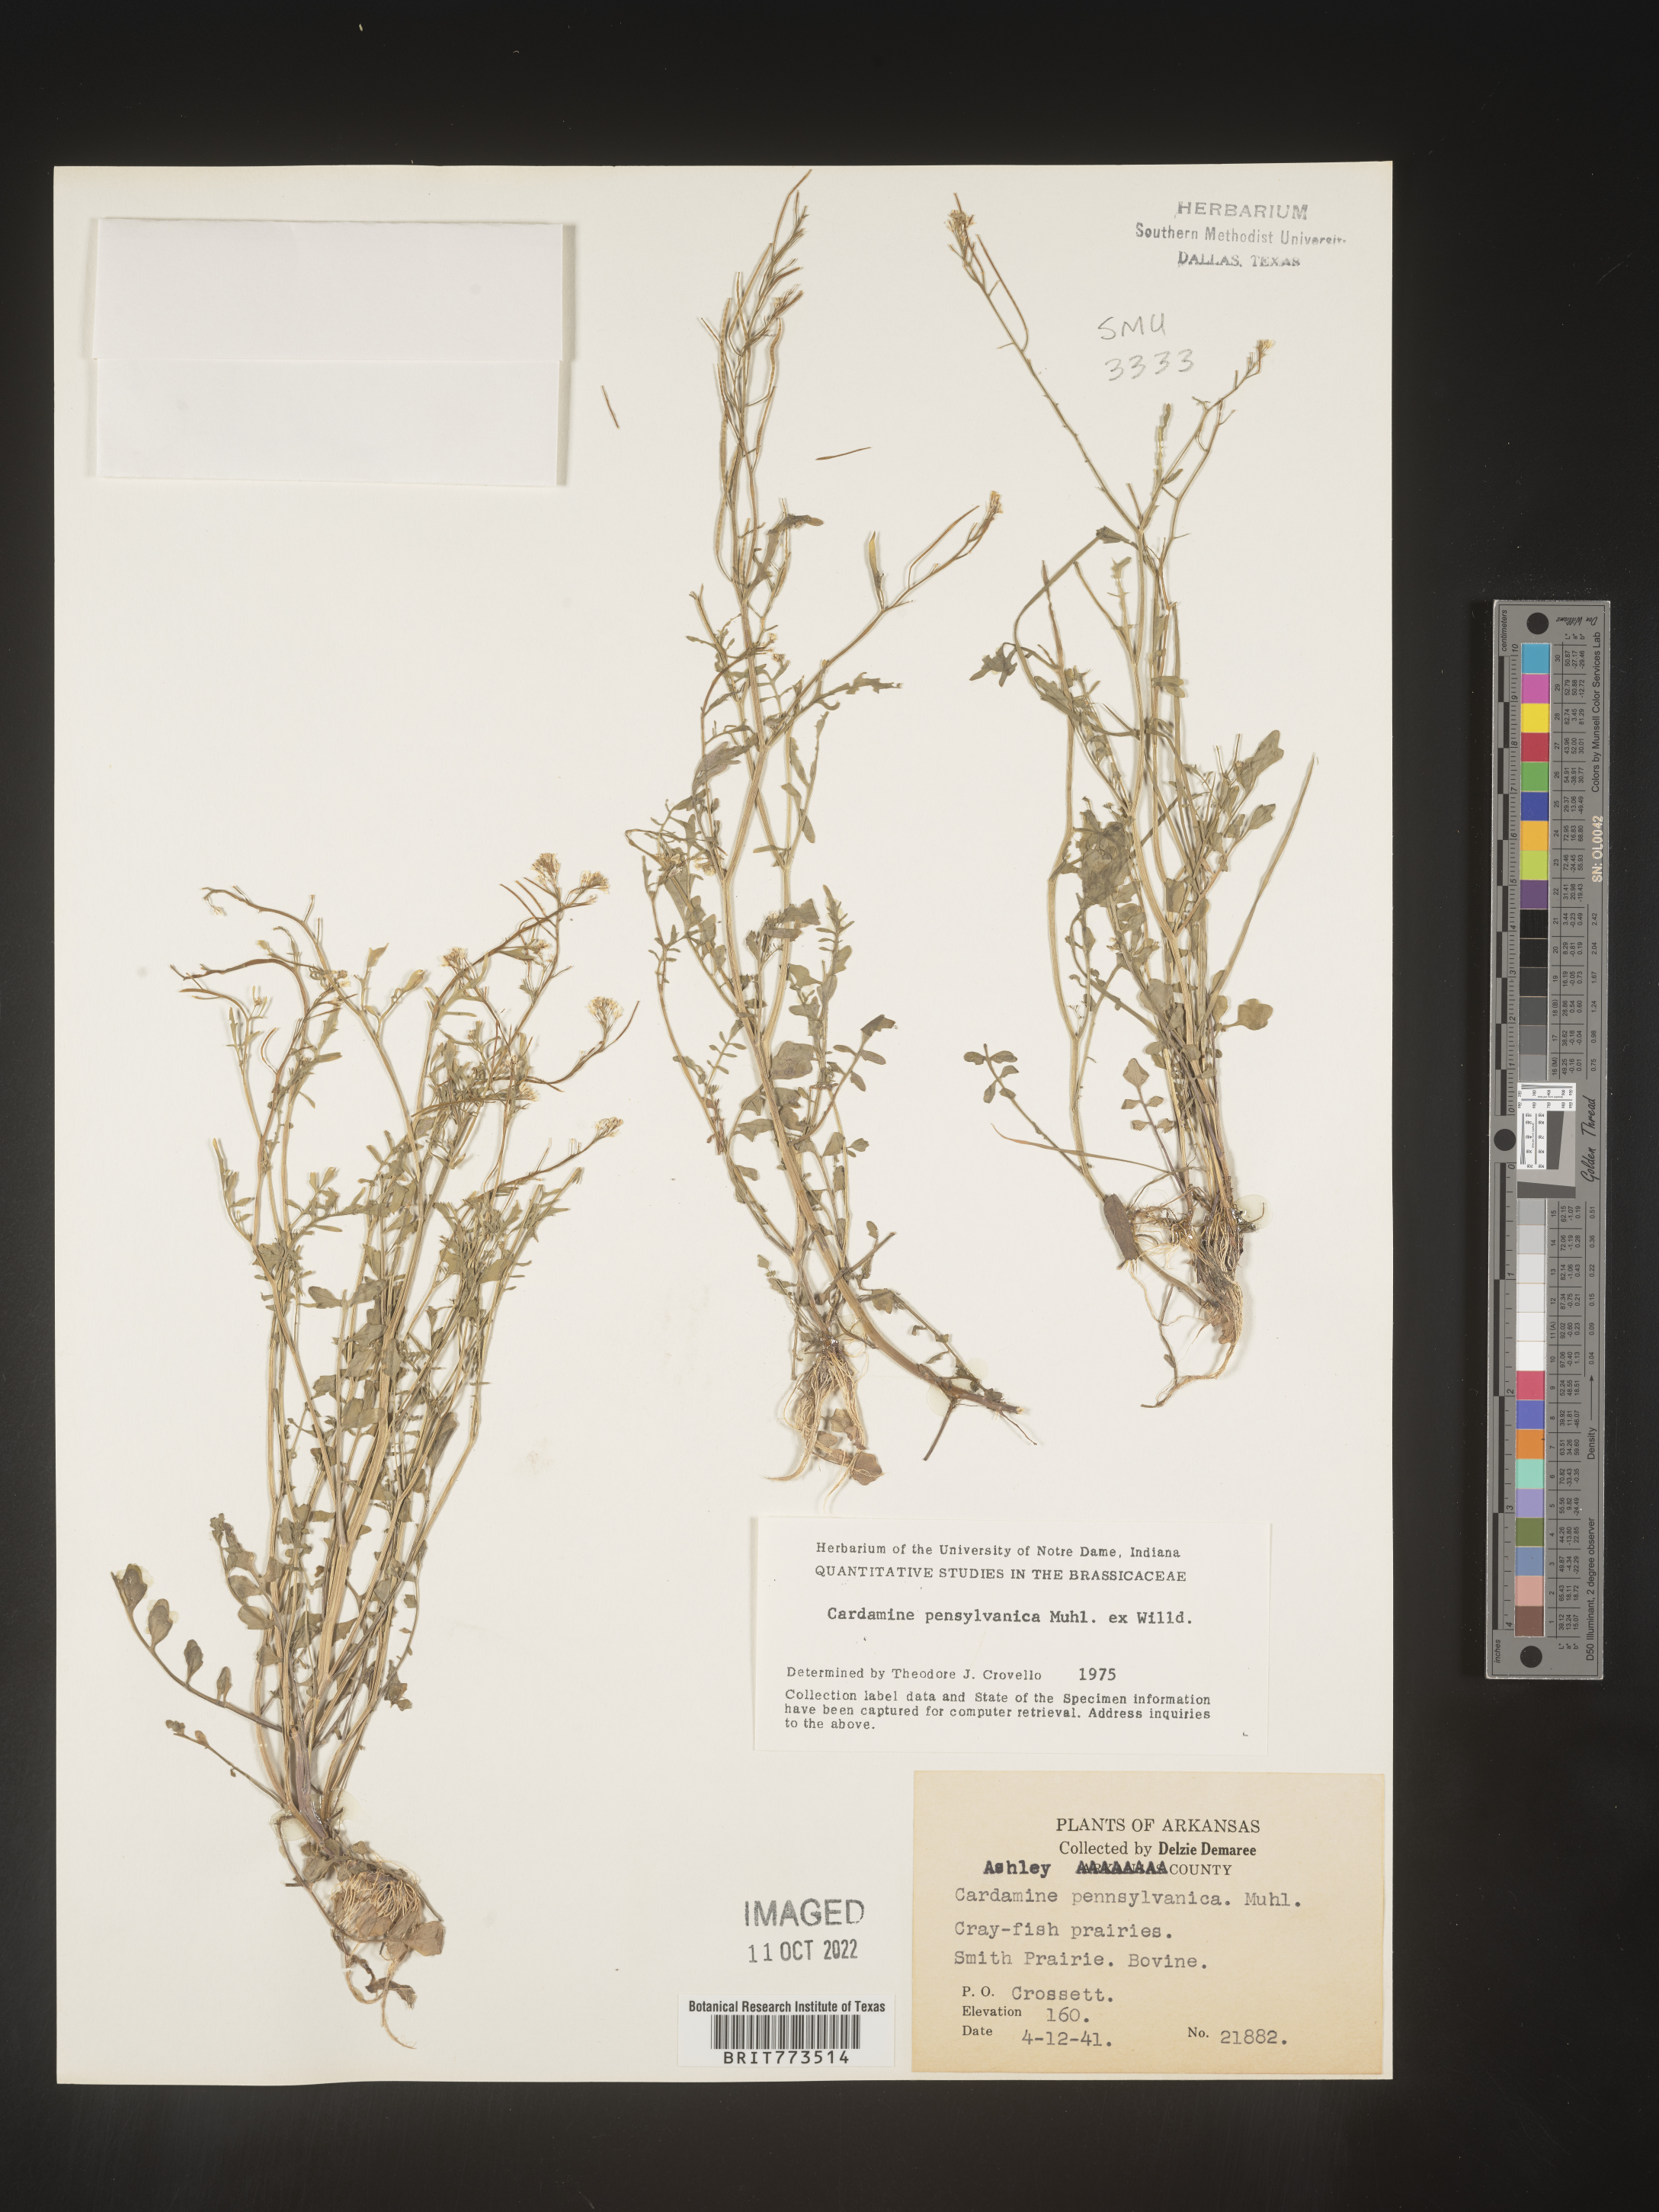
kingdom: Plantae
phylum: Tracheophyta
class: Magnoliopsida
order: Brassicales
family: Brassicaceae
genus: Cardamine
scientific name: Cardamine pensylvanica
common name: Pennsylvania bittercress
